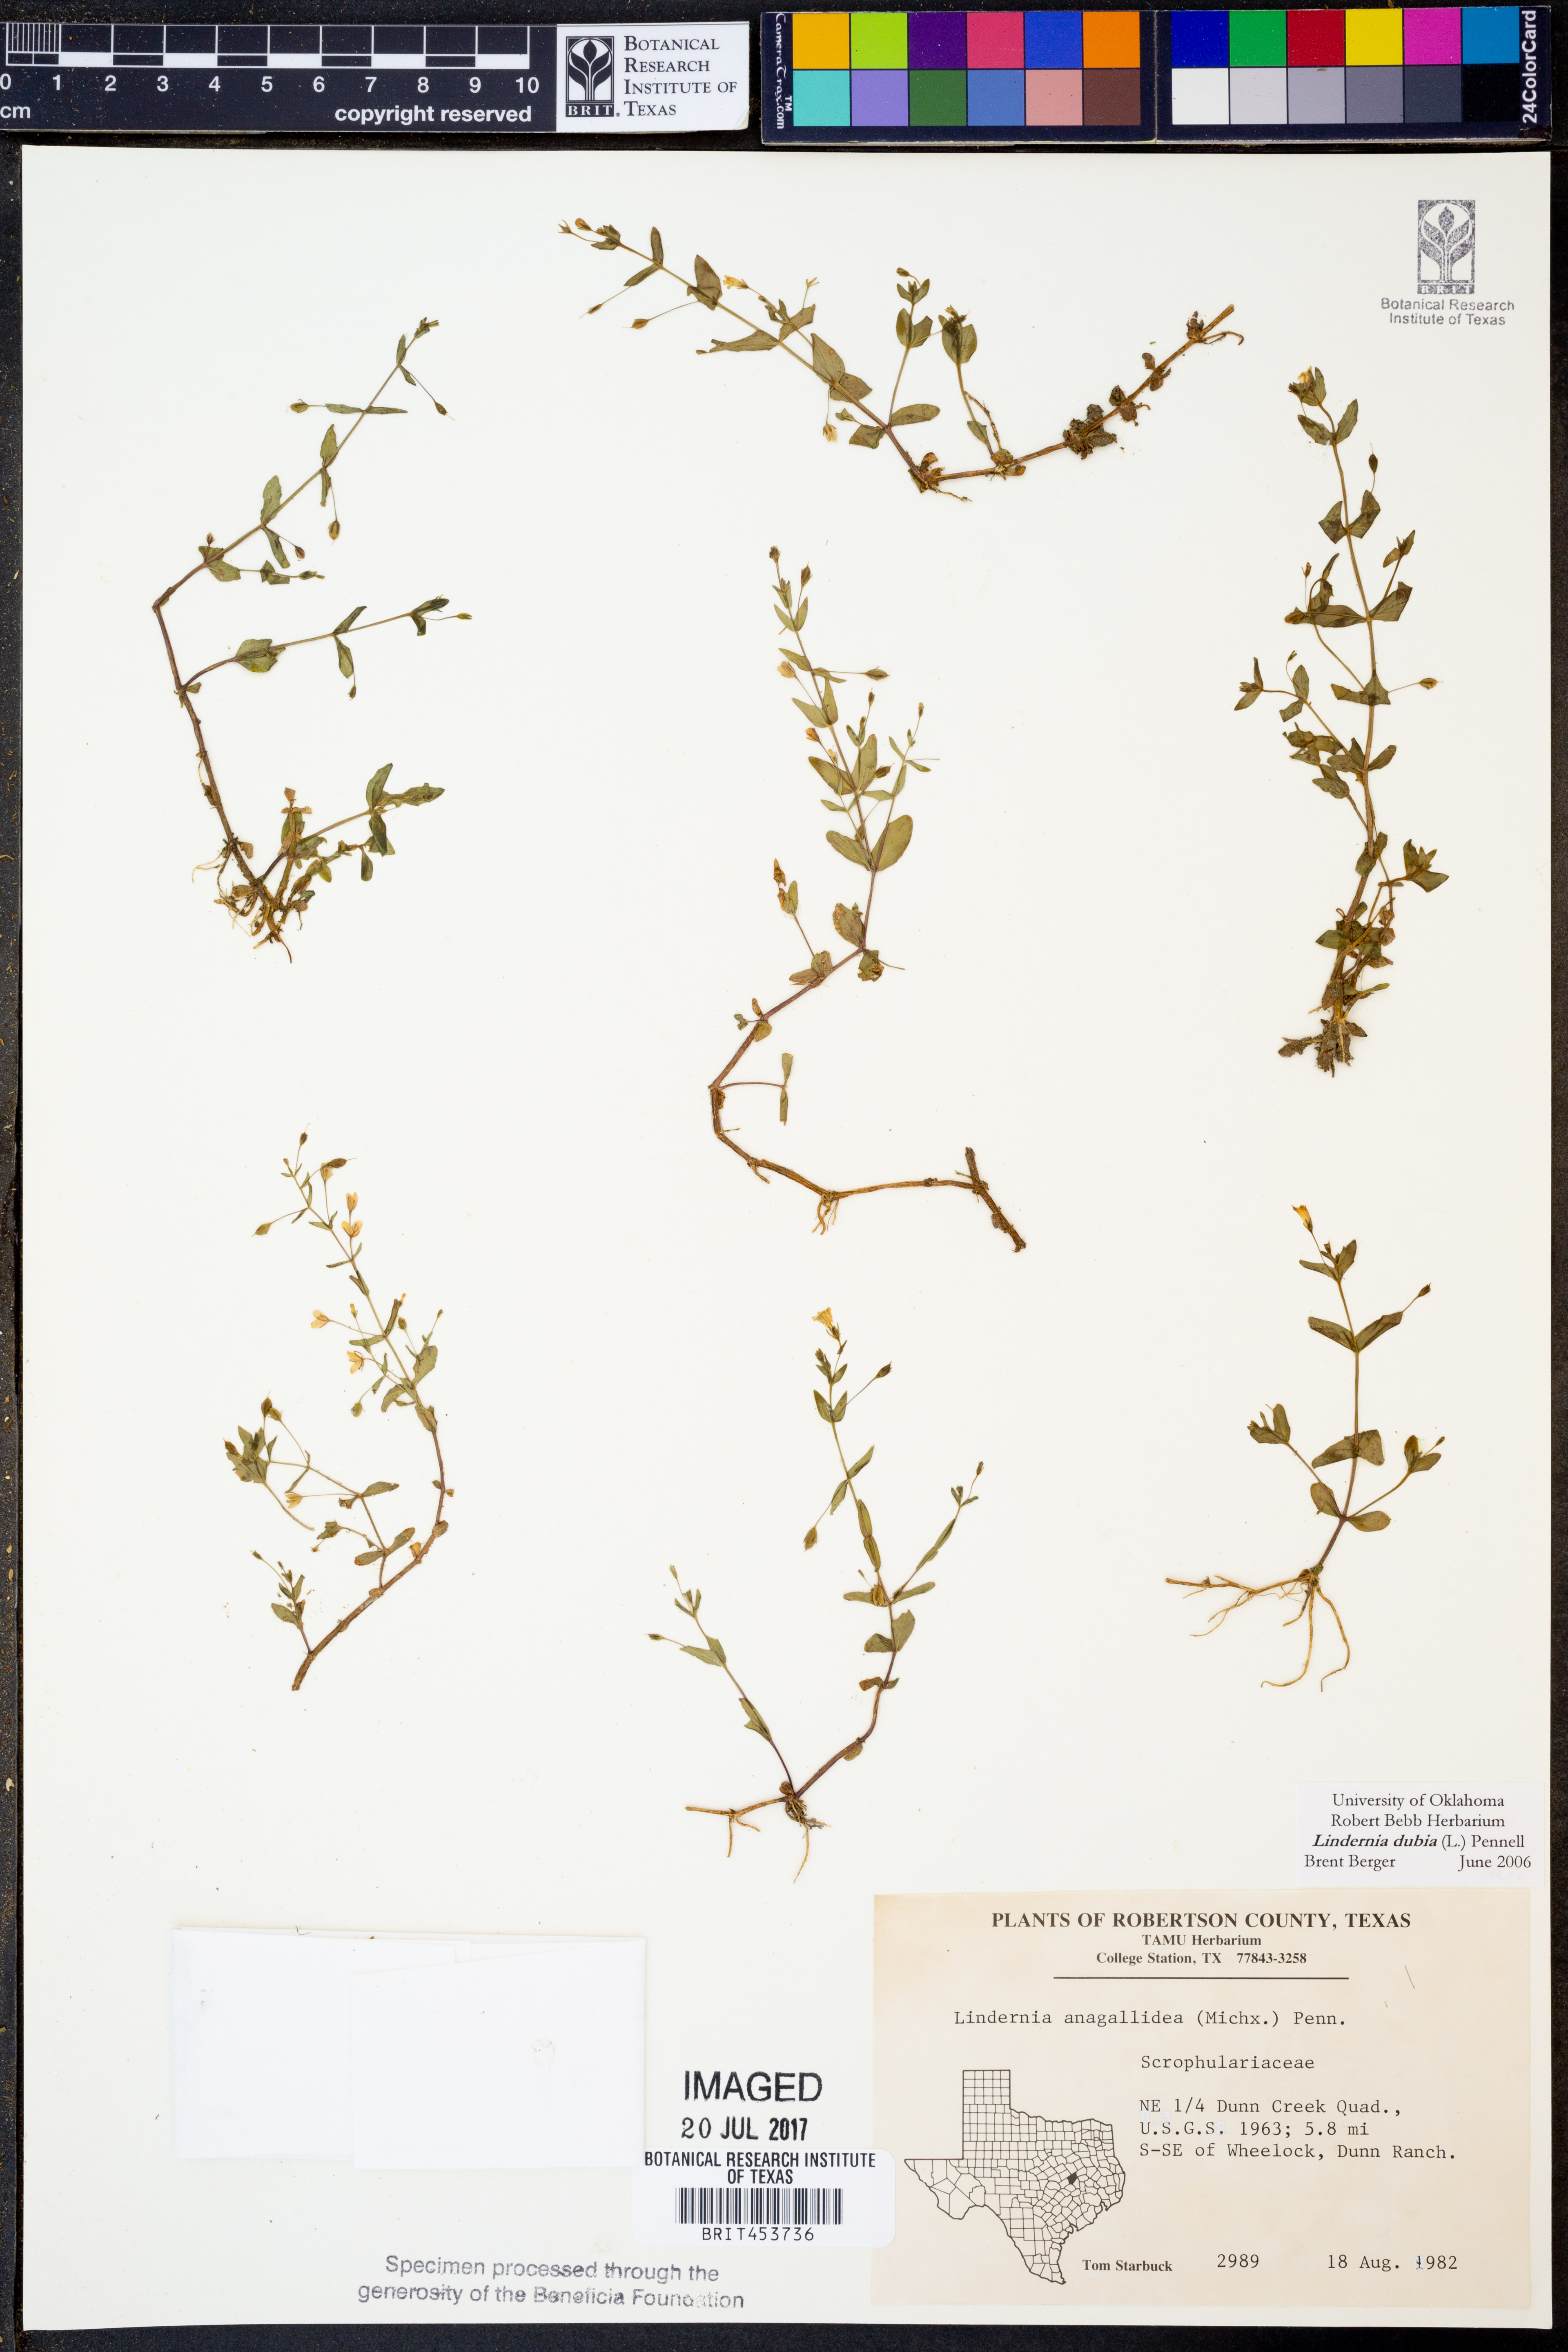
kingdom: Plantae
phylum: Tracheophyta
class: Magnoliopsida
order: Lamiales
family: Linderniaceae
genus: Lindernia
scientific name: Lindernia dubia
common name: Annual false pimpernel
